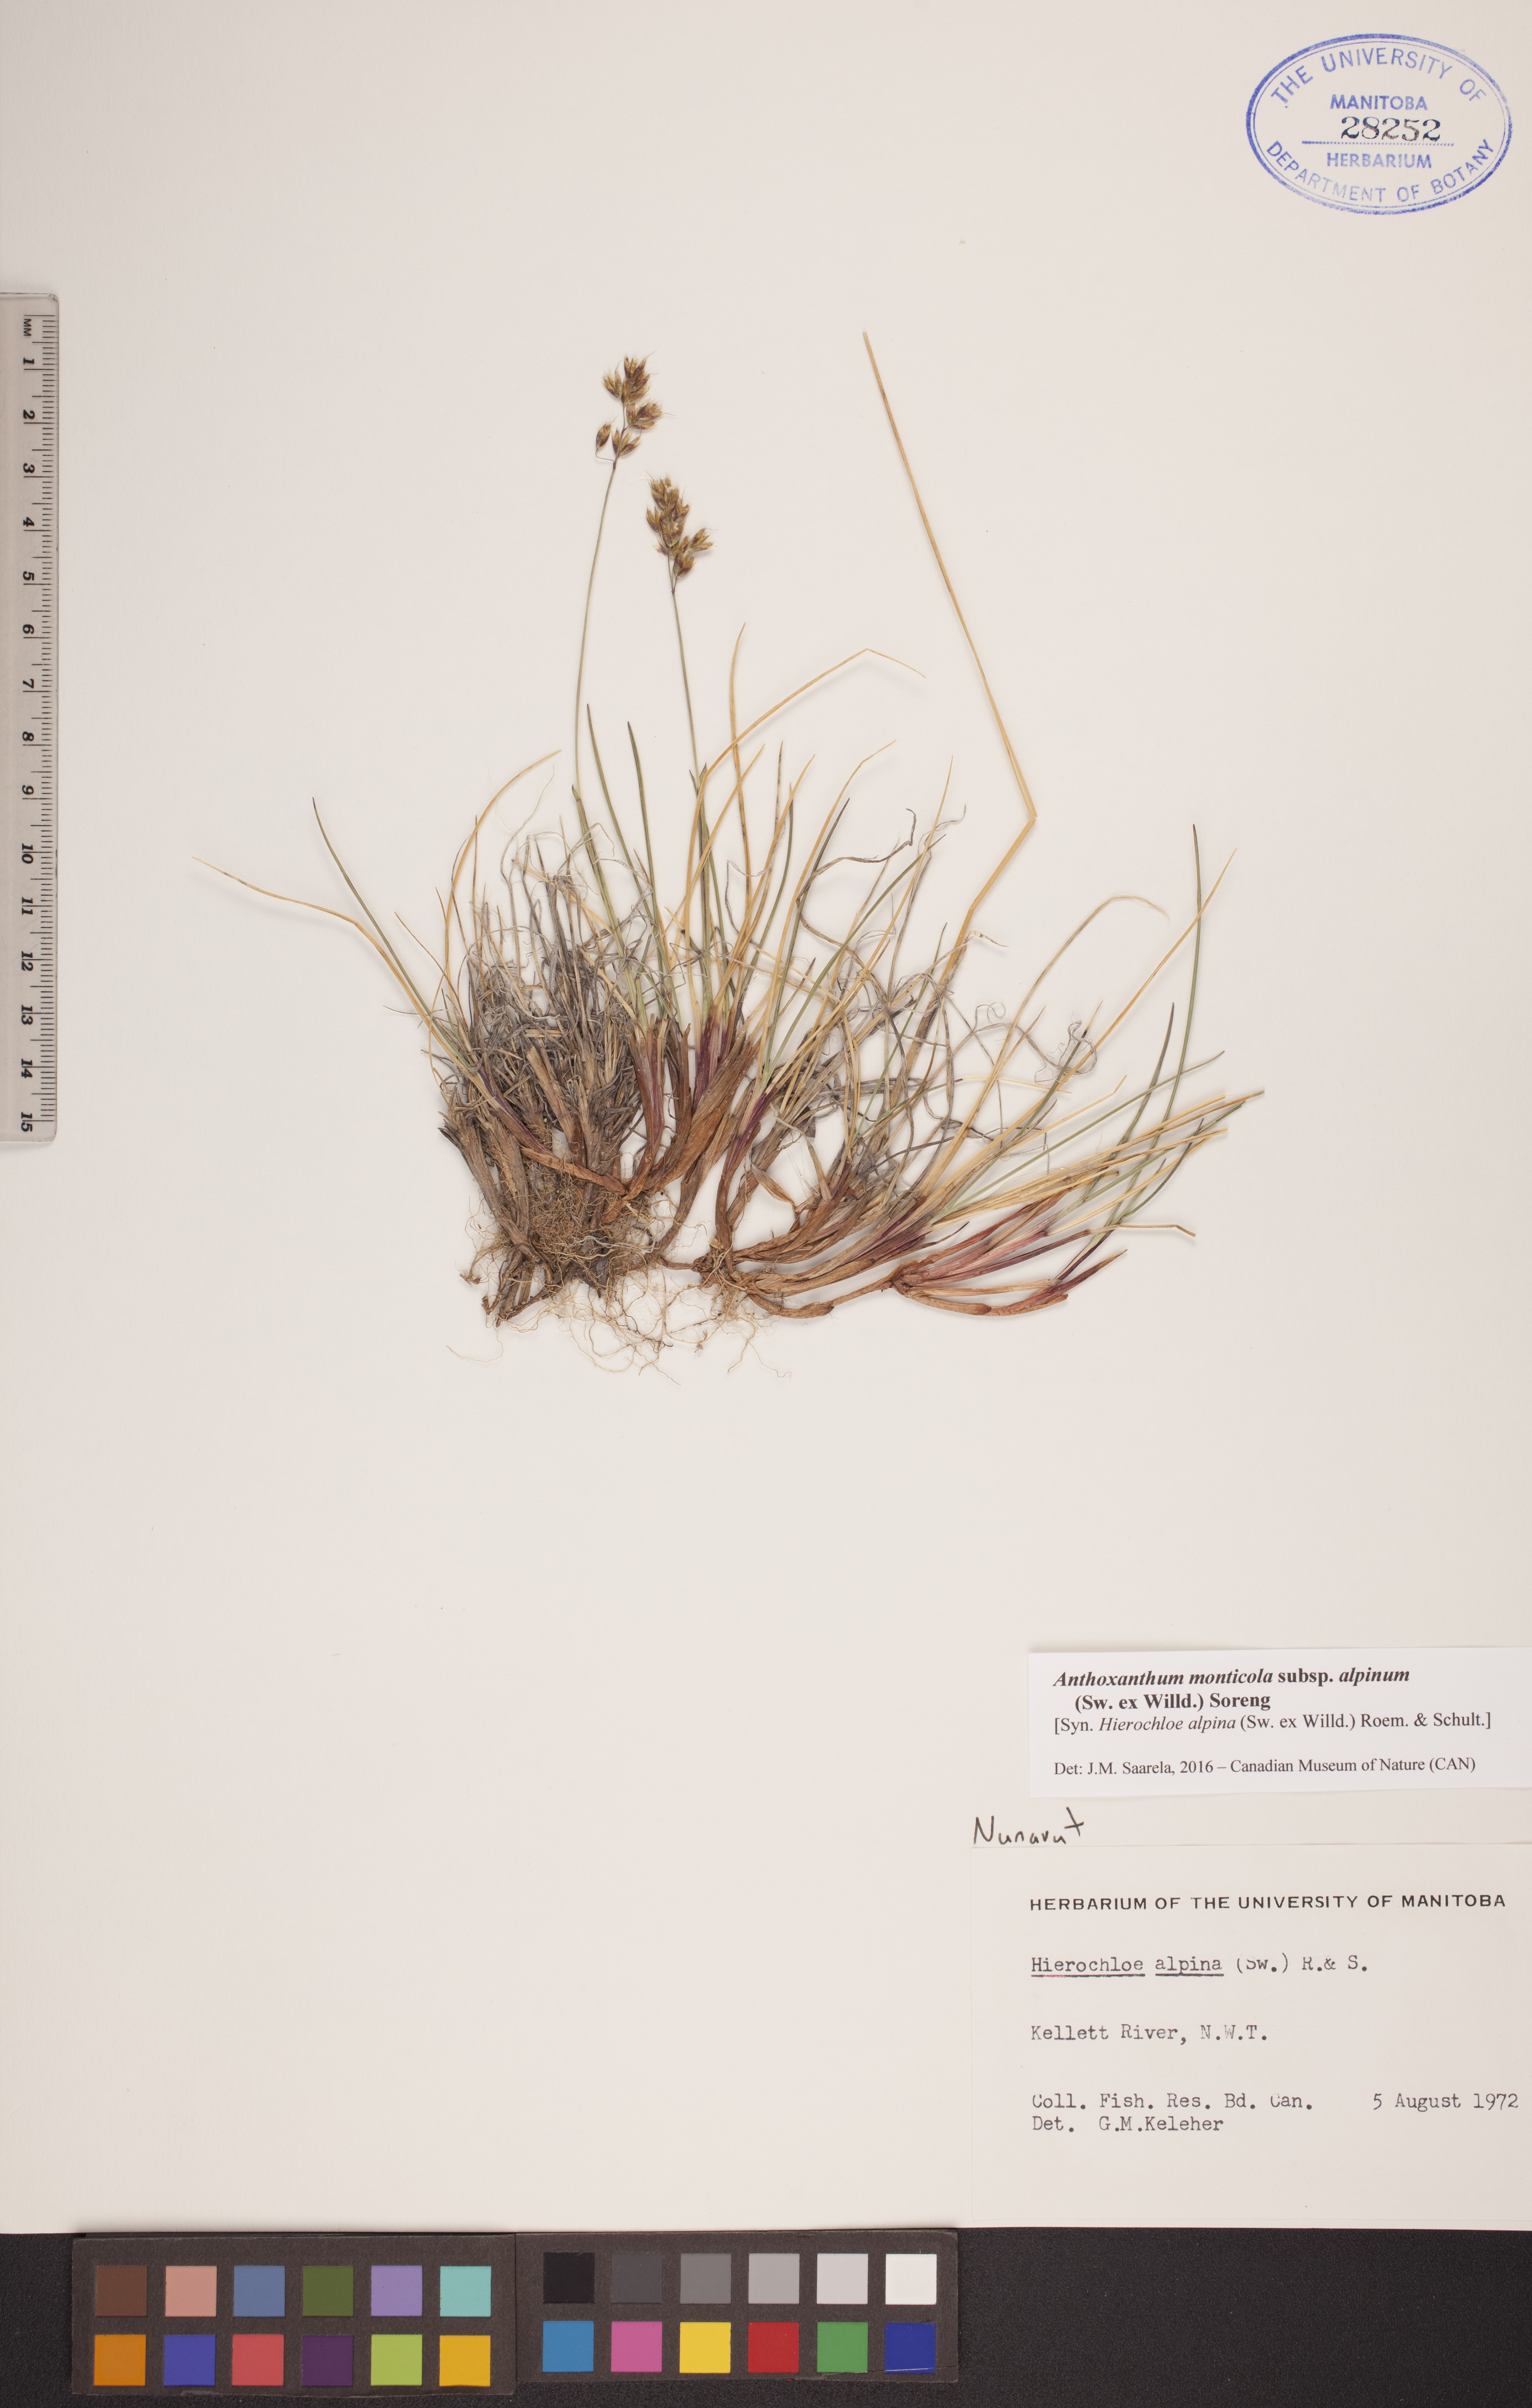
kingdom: Plantae
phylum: Tracheophyta
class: Liliopsida
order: Poales
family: Poaceae
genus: Anthoxanthum
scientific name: Anthoxanthum monticola
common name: Alpine sweetgrass
